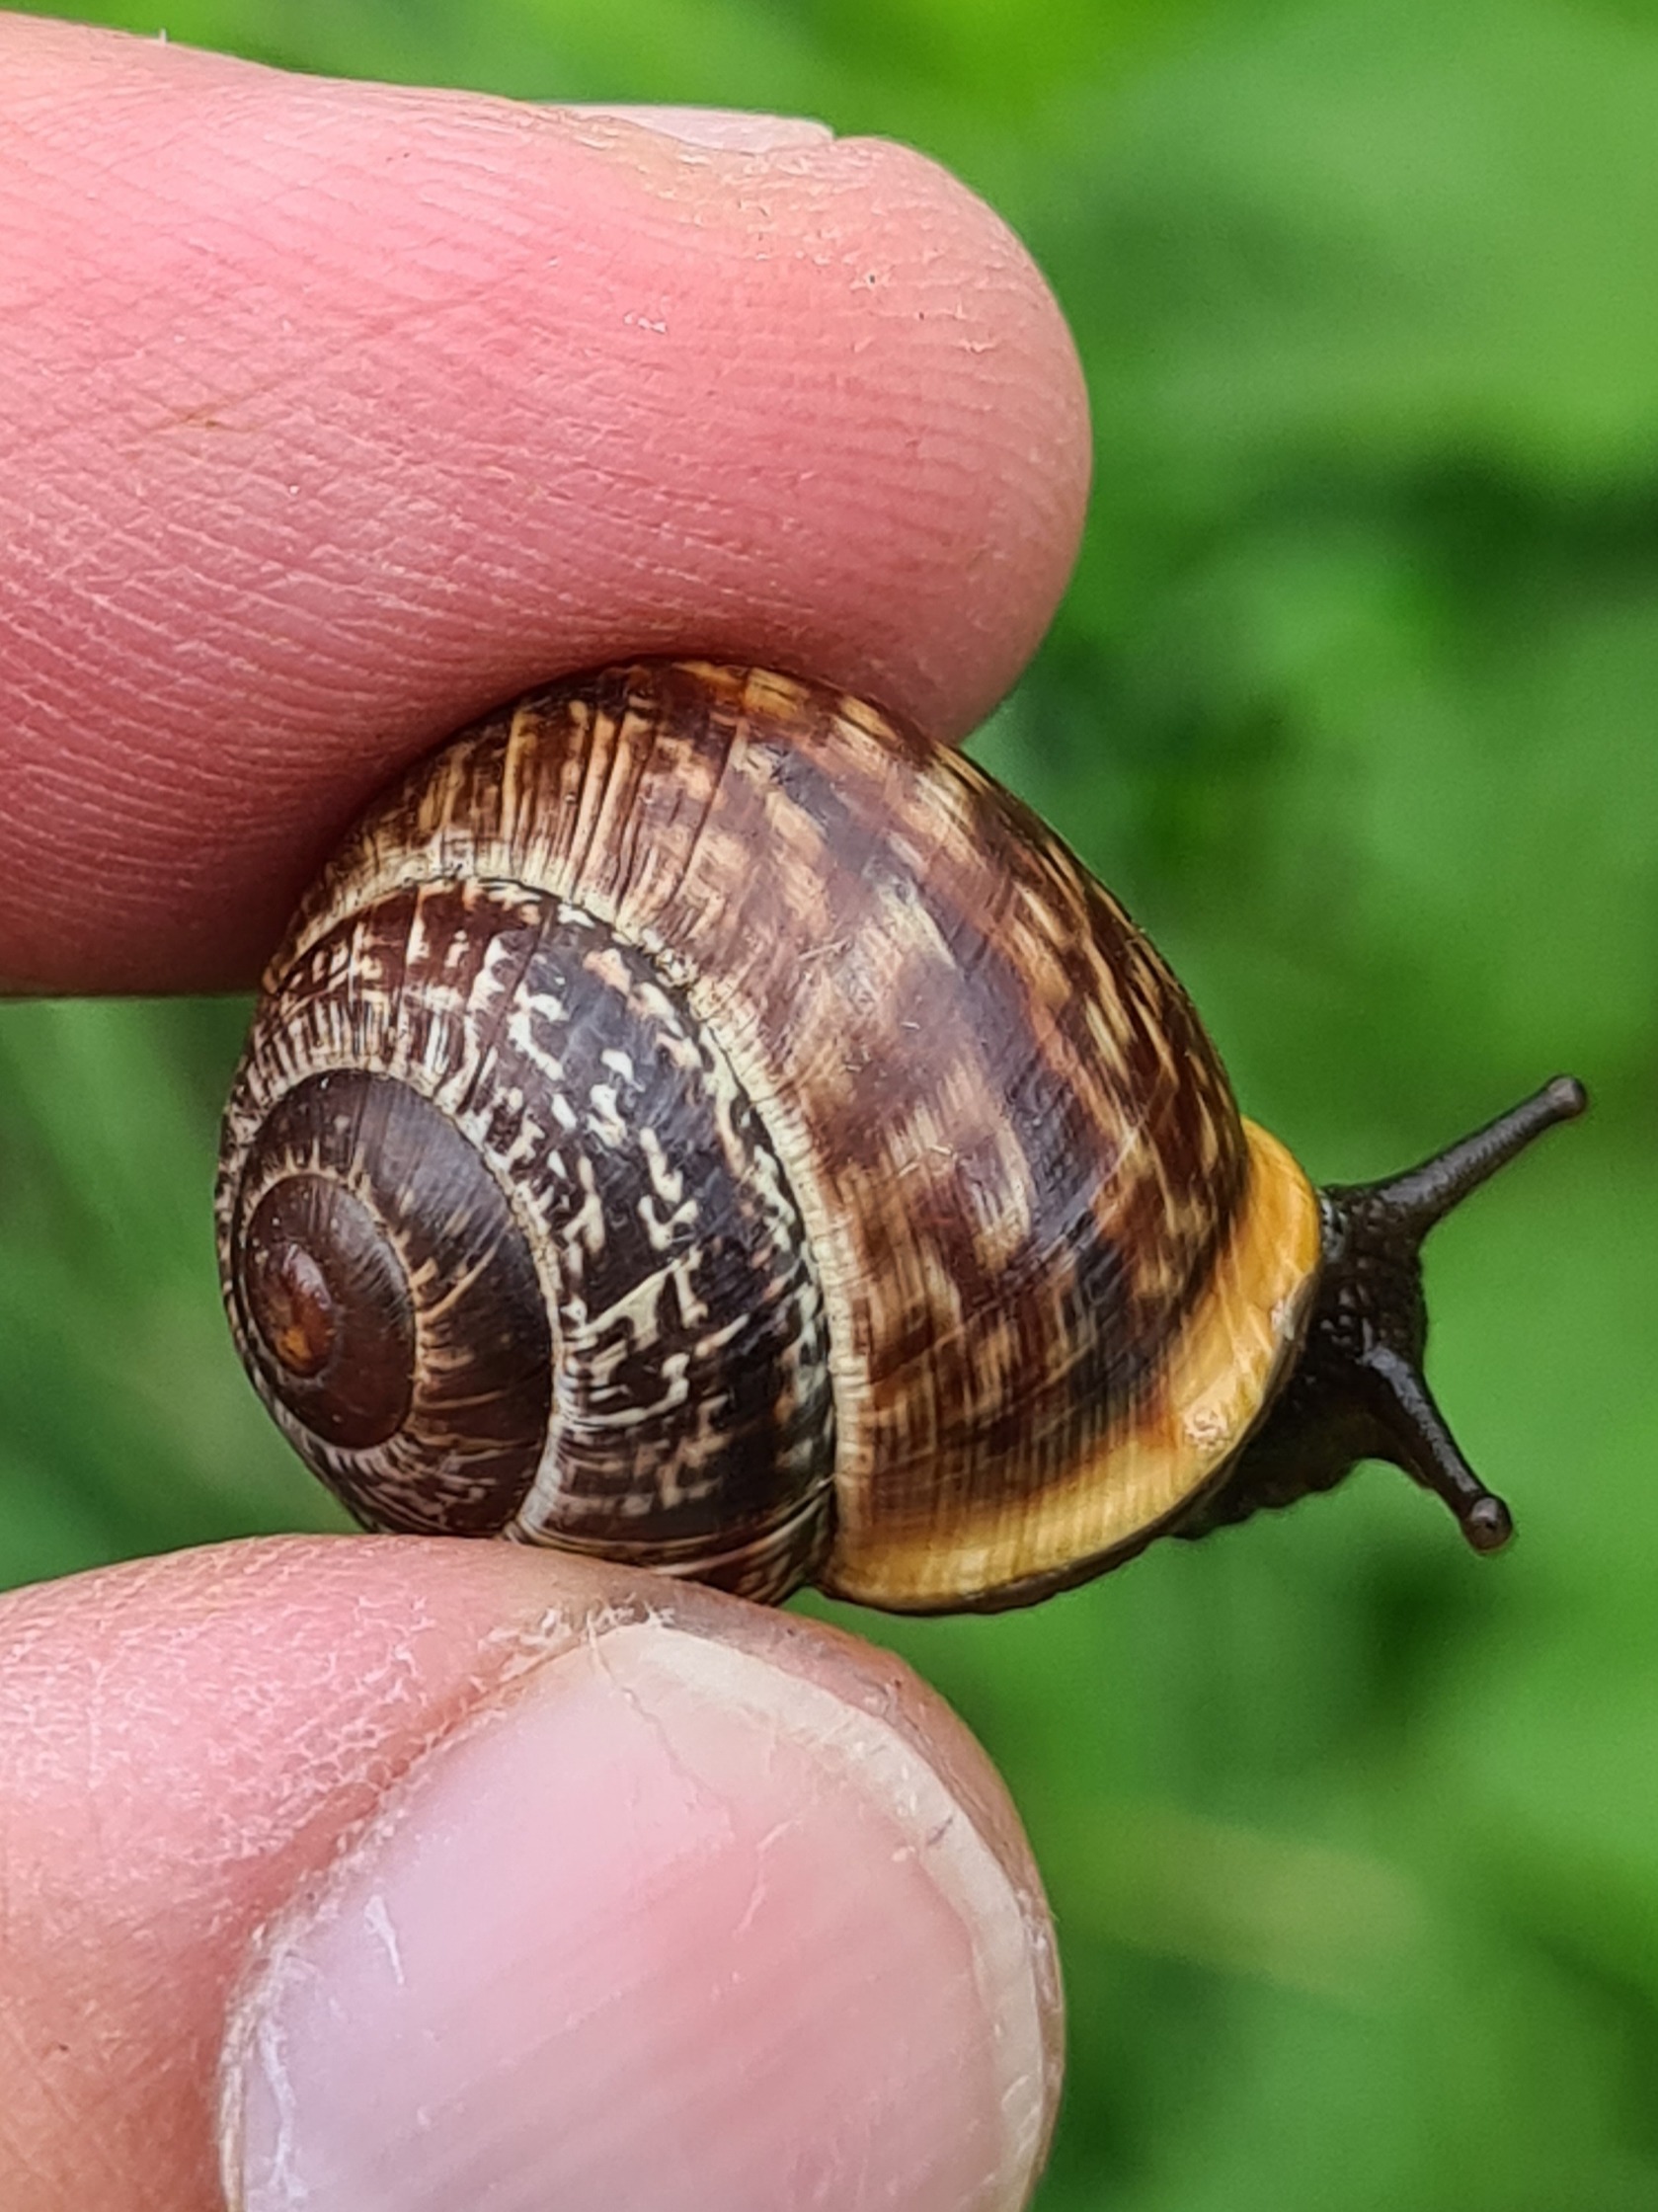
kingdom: Animalia
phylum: Mollusca
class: Gastropoda
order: Stylommatophora
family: Helicidae
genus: Arianta
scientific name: Arianta arbustorum
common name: Kratsnegl
